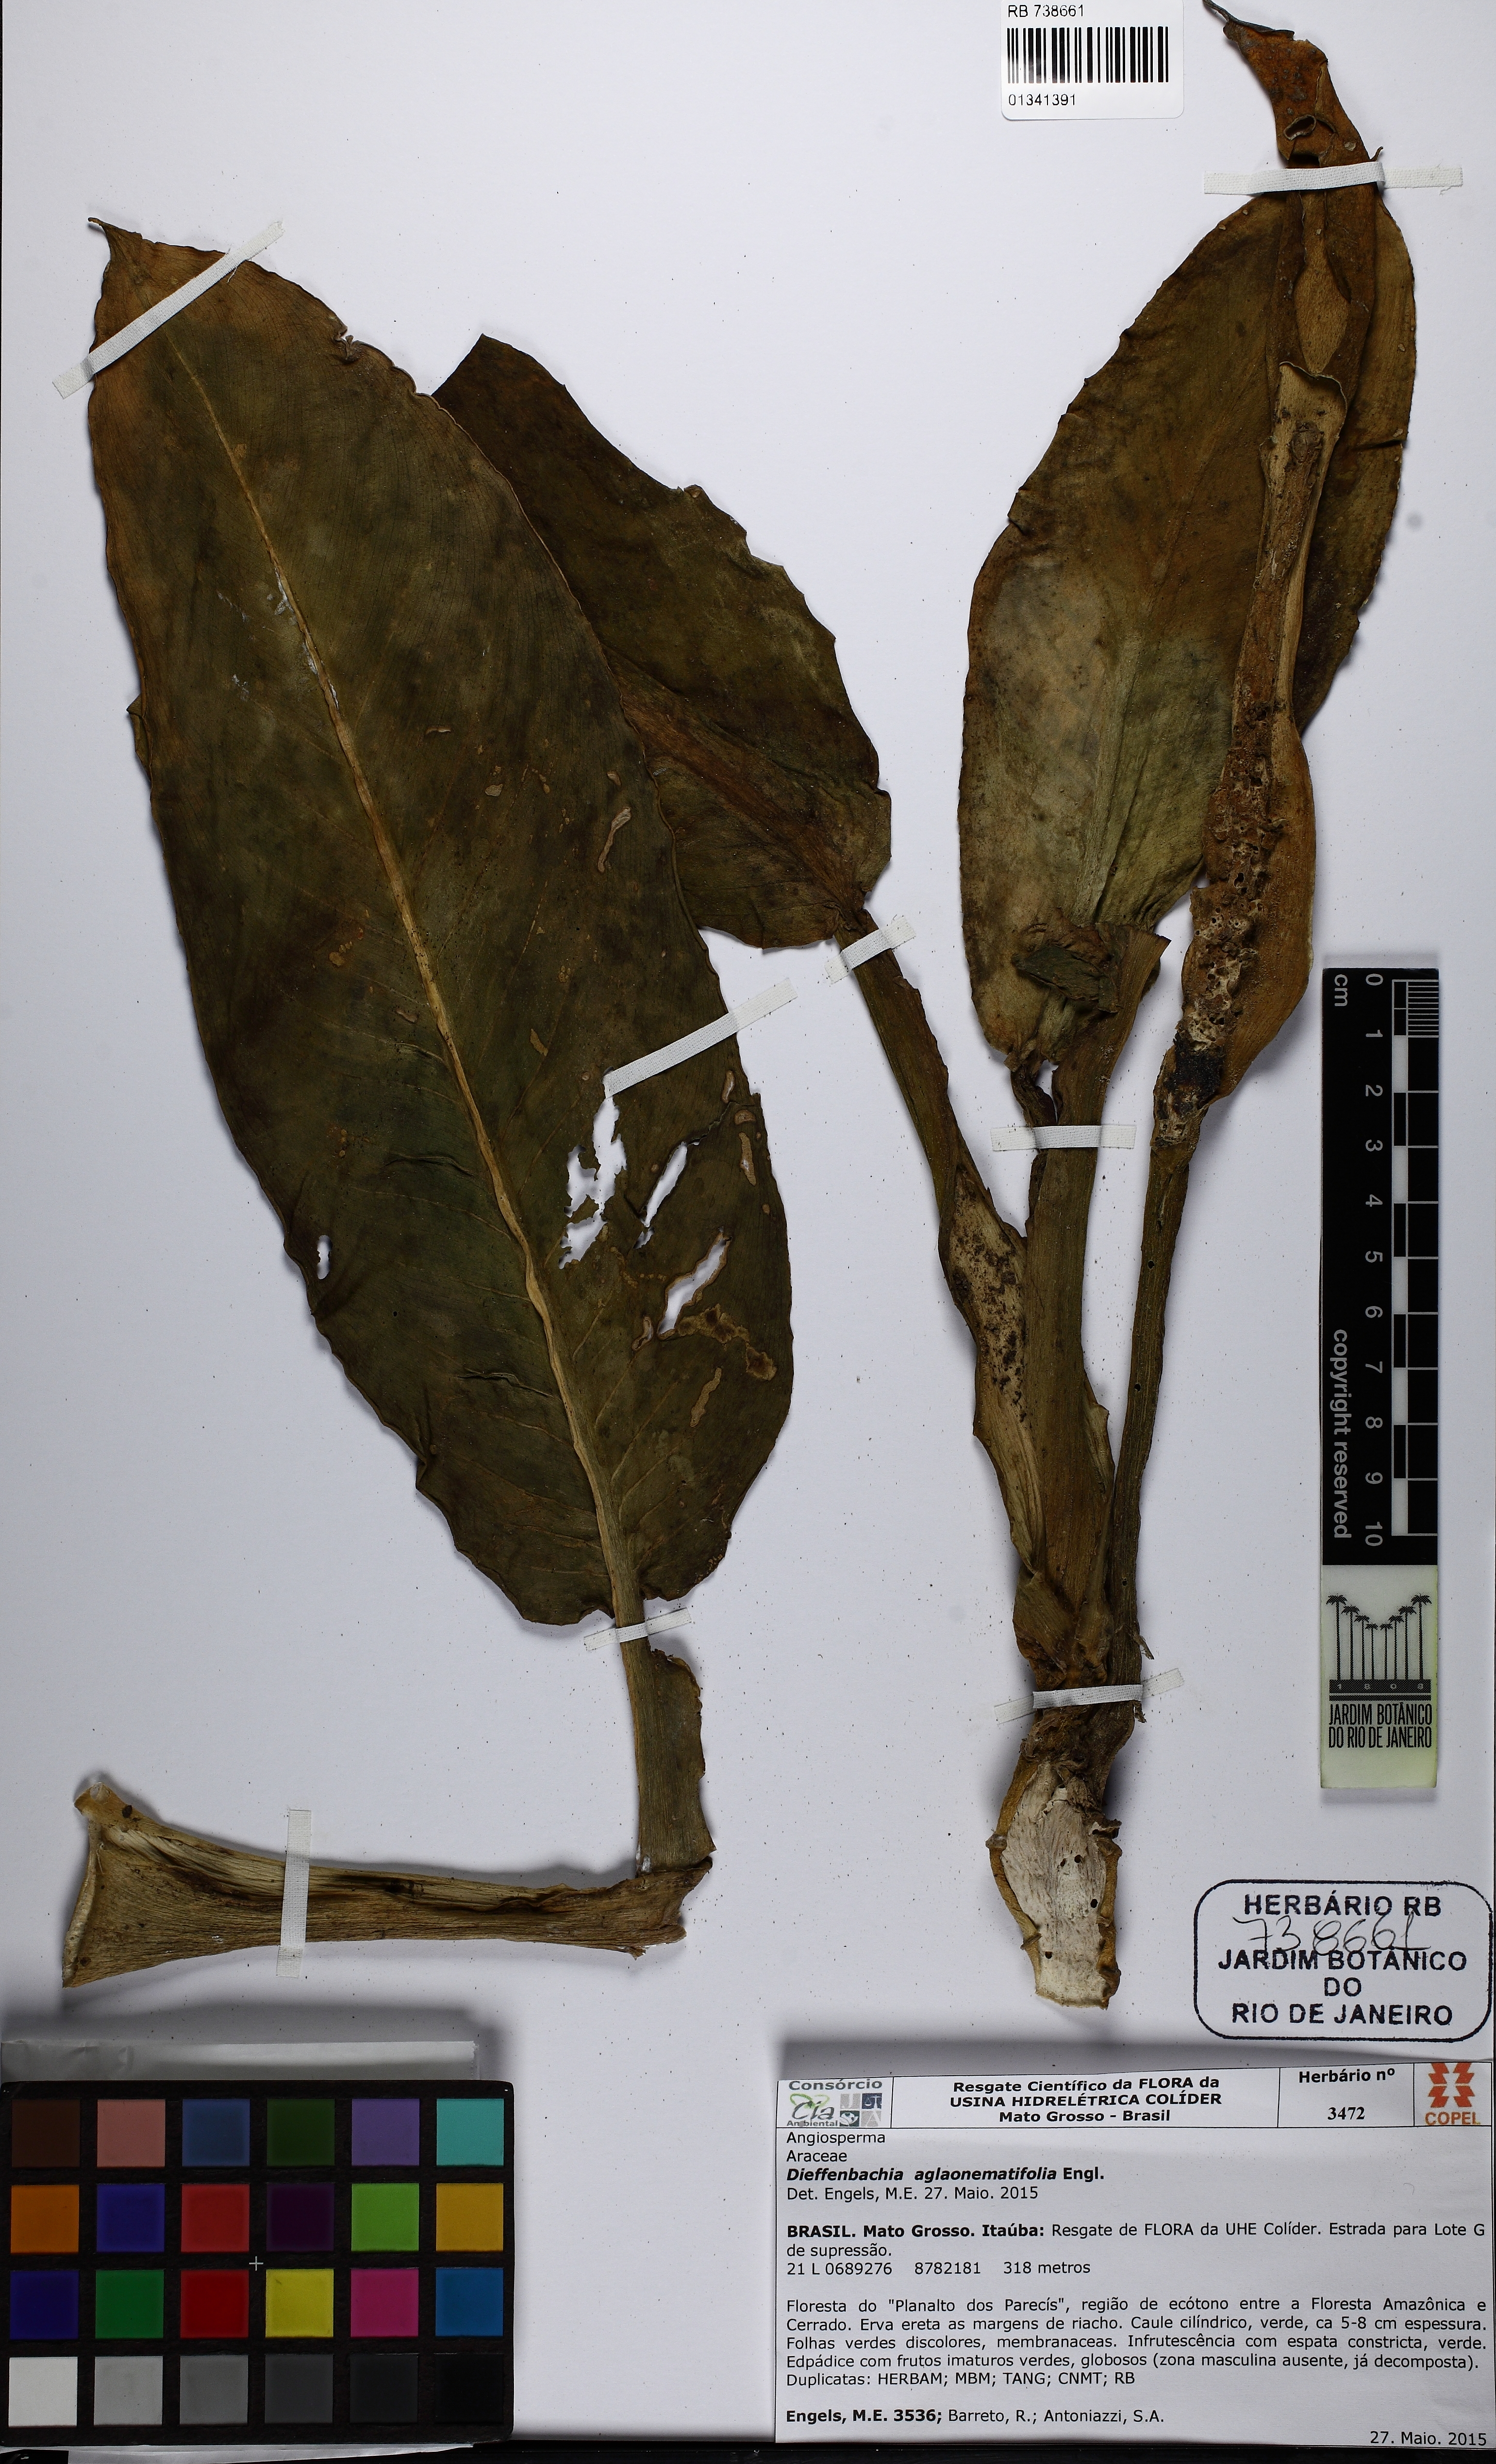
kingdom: Plantae
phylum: Tracheophyta
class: Liliopsida
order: Alismatales
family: Araceae
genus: Dieffenbachia
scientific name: Dieffenbachia aglaonematifolia
